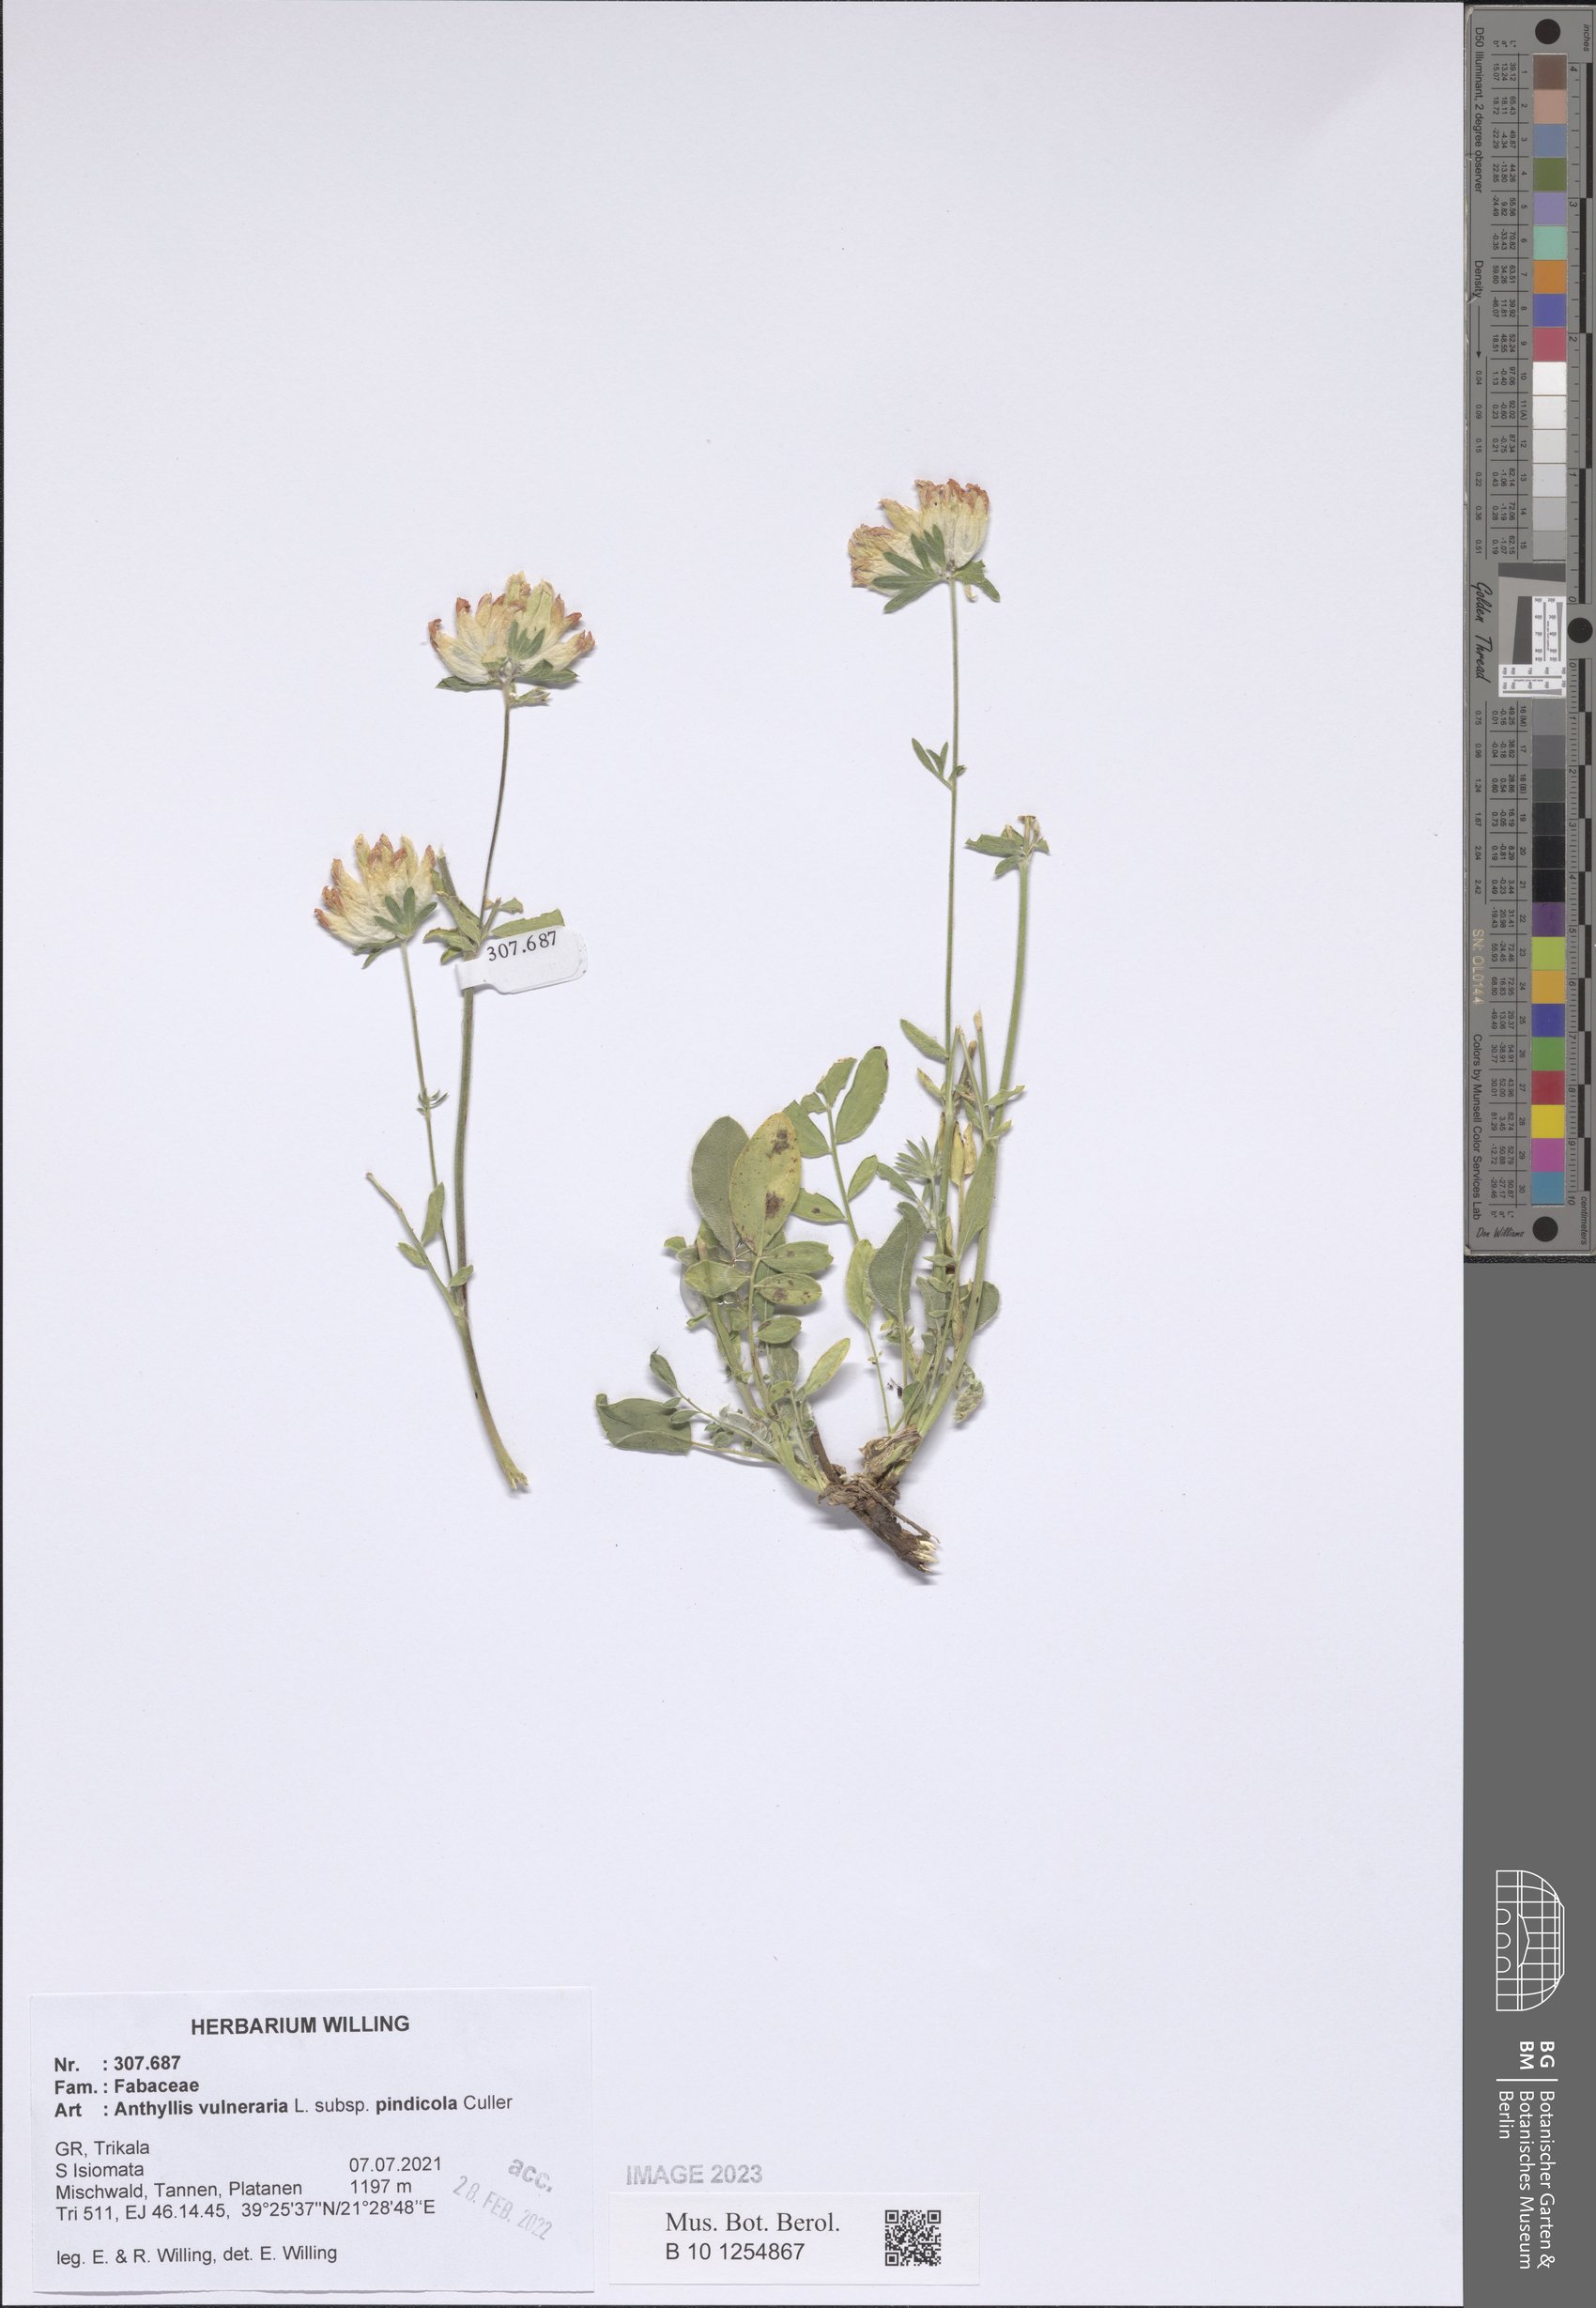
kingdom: Plantae
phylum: Tracheophyta
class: Magnoliopsida
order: Fabales
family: Fabaceae
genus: Anthyllis
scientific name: Anthyllis vulneraria
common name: Kidney vetch
